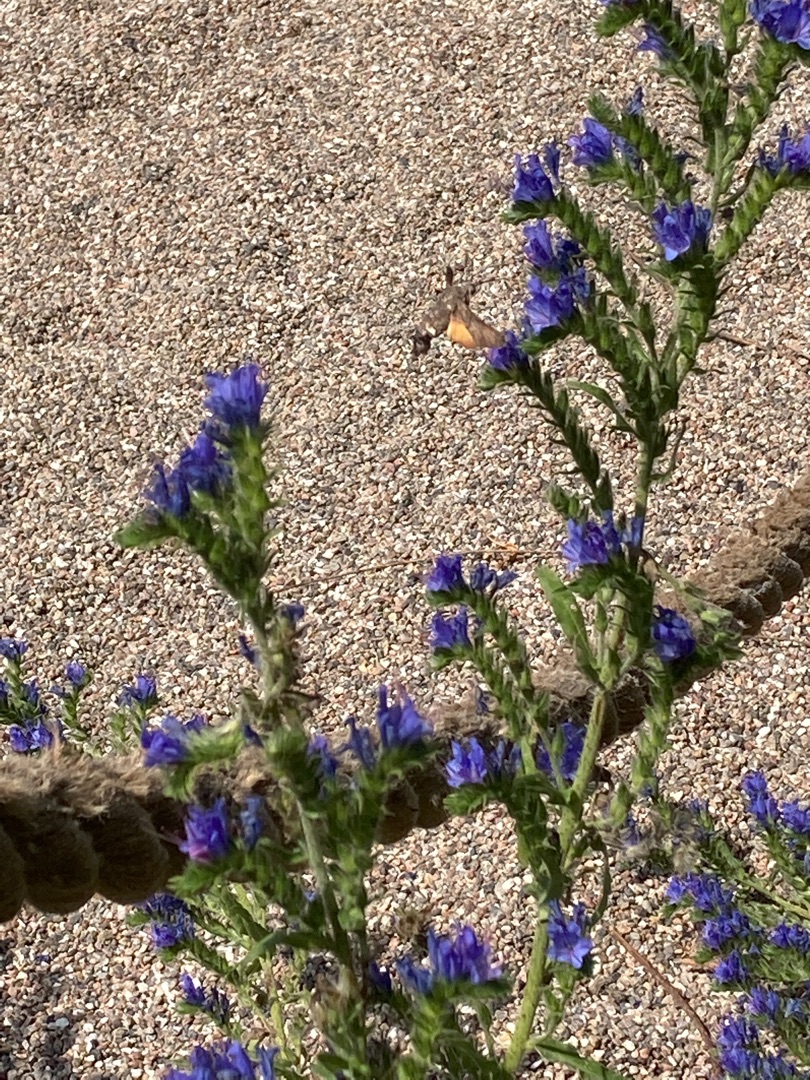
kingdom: Plantae
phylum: Tracheophyta
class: Magnoliopsida
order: Boraginales
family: Boraginaceae
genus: Echium
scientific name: Echium vulgare
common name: Slangehoved
